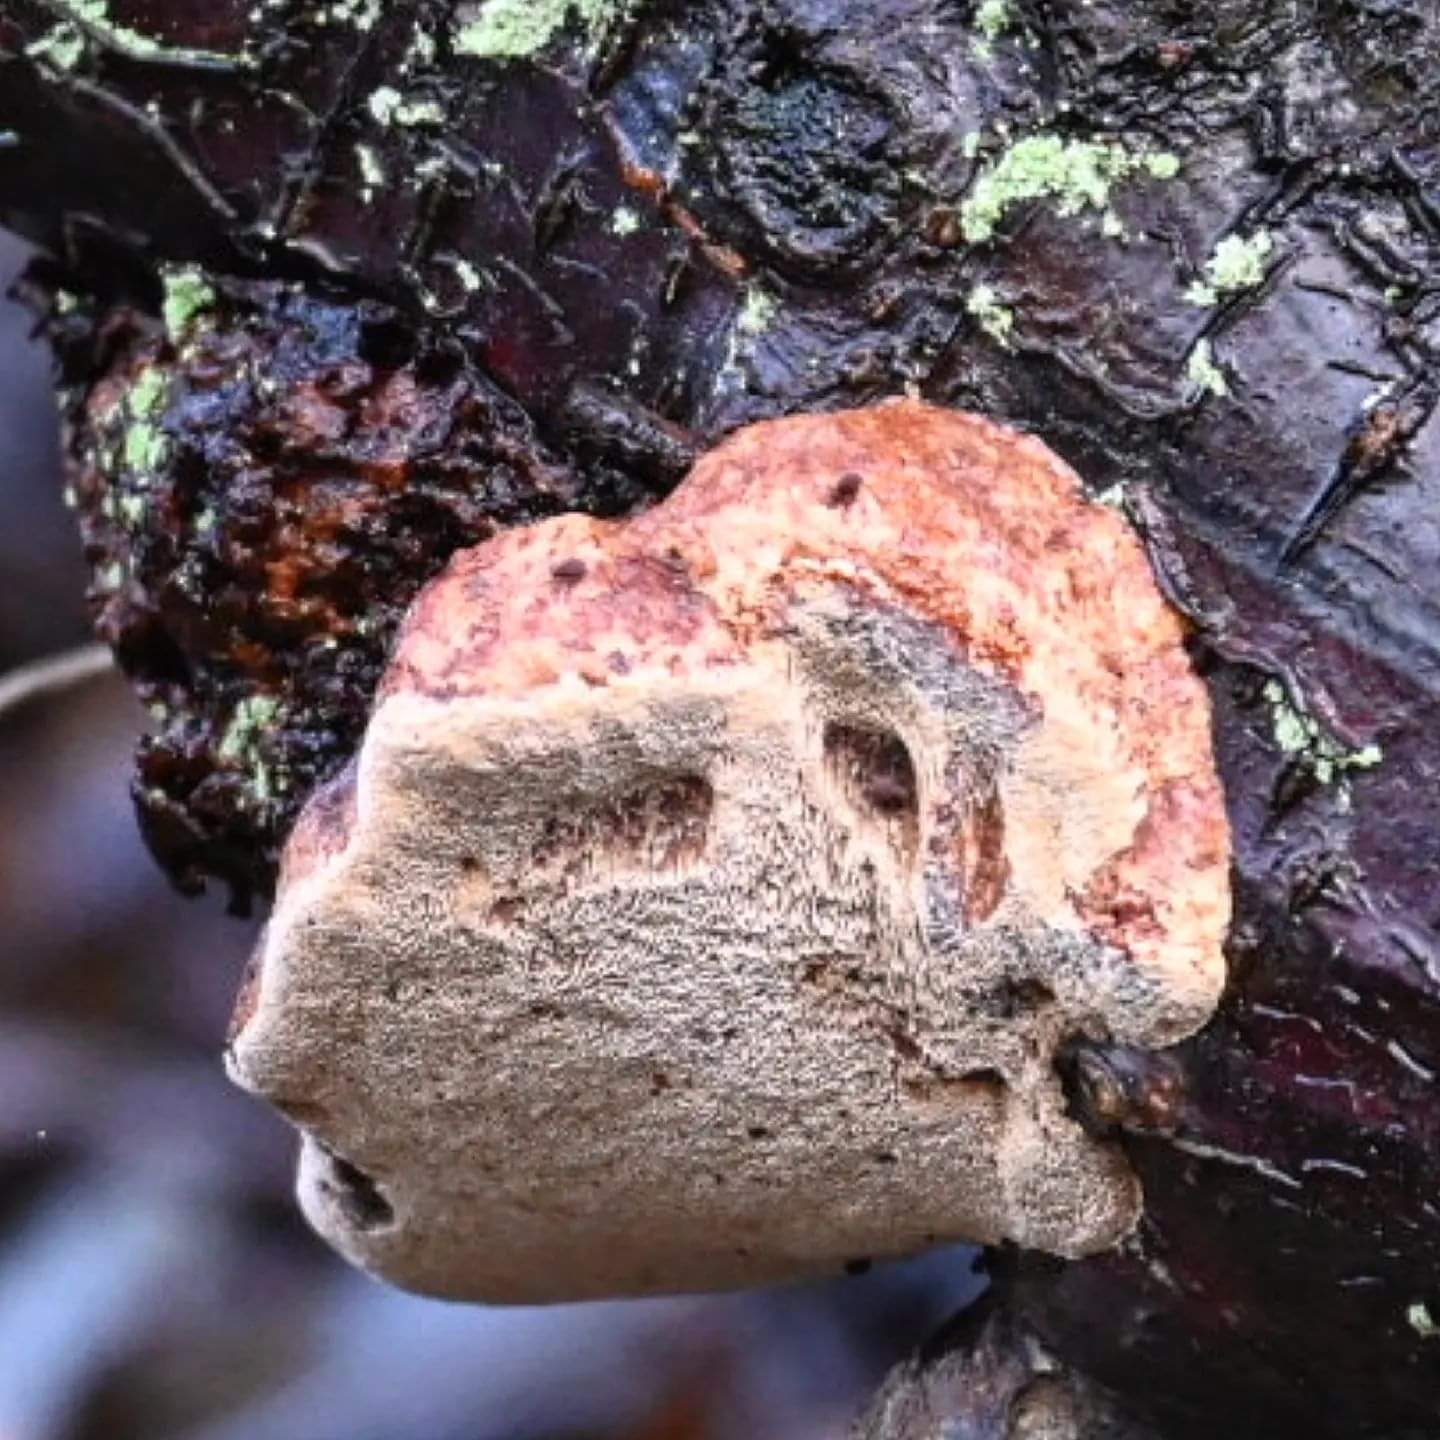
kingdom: Fungi
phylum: Basidiomycota
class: Agaricomycetes
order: Hymenochaetales
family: Hymenochaetaceae
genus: Phellinus
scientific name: Phellinus pomaceus
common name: blomme-ildporesvamp
